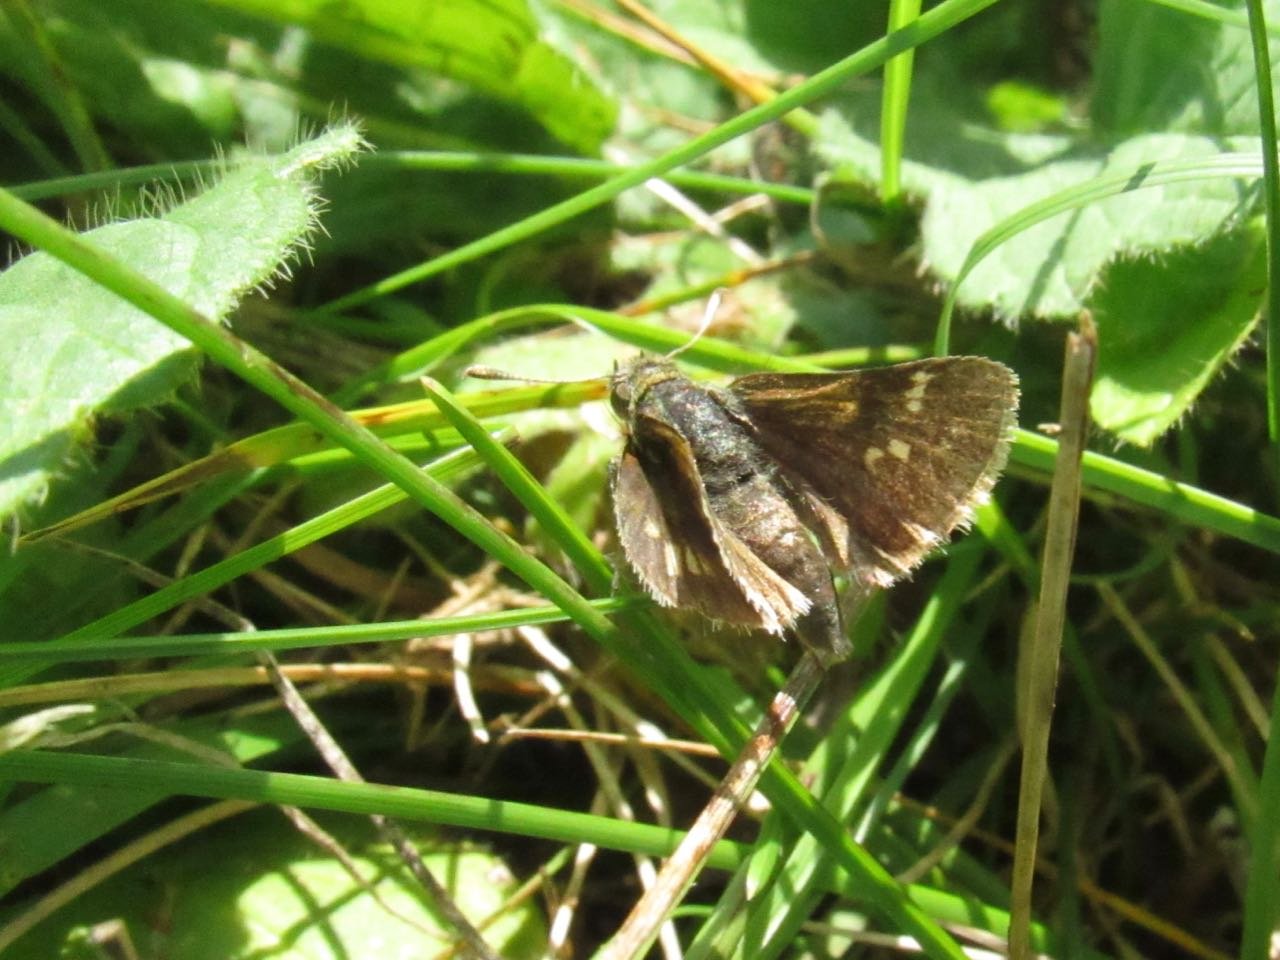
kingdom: Animalia
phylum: Arthropoda
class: Insecta
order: Lepidoptera
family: Hesperiidae
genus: Polites
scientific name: Polites coras
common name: Peck's Skipper
